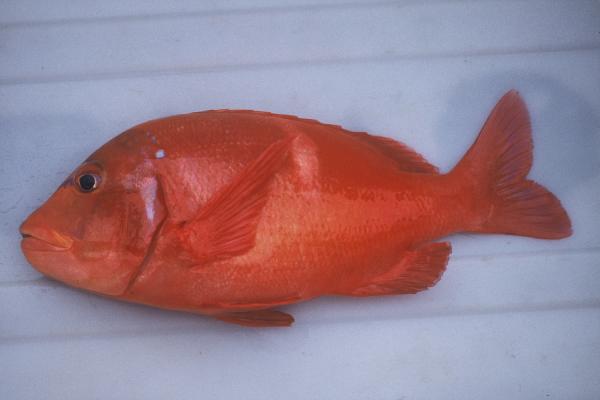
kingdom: Animalia
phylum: Chordata
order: Perciformes
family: Sparidae
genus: Chrysoblephus
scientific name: Chrysoblephus laticeps
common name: Roman seabream
